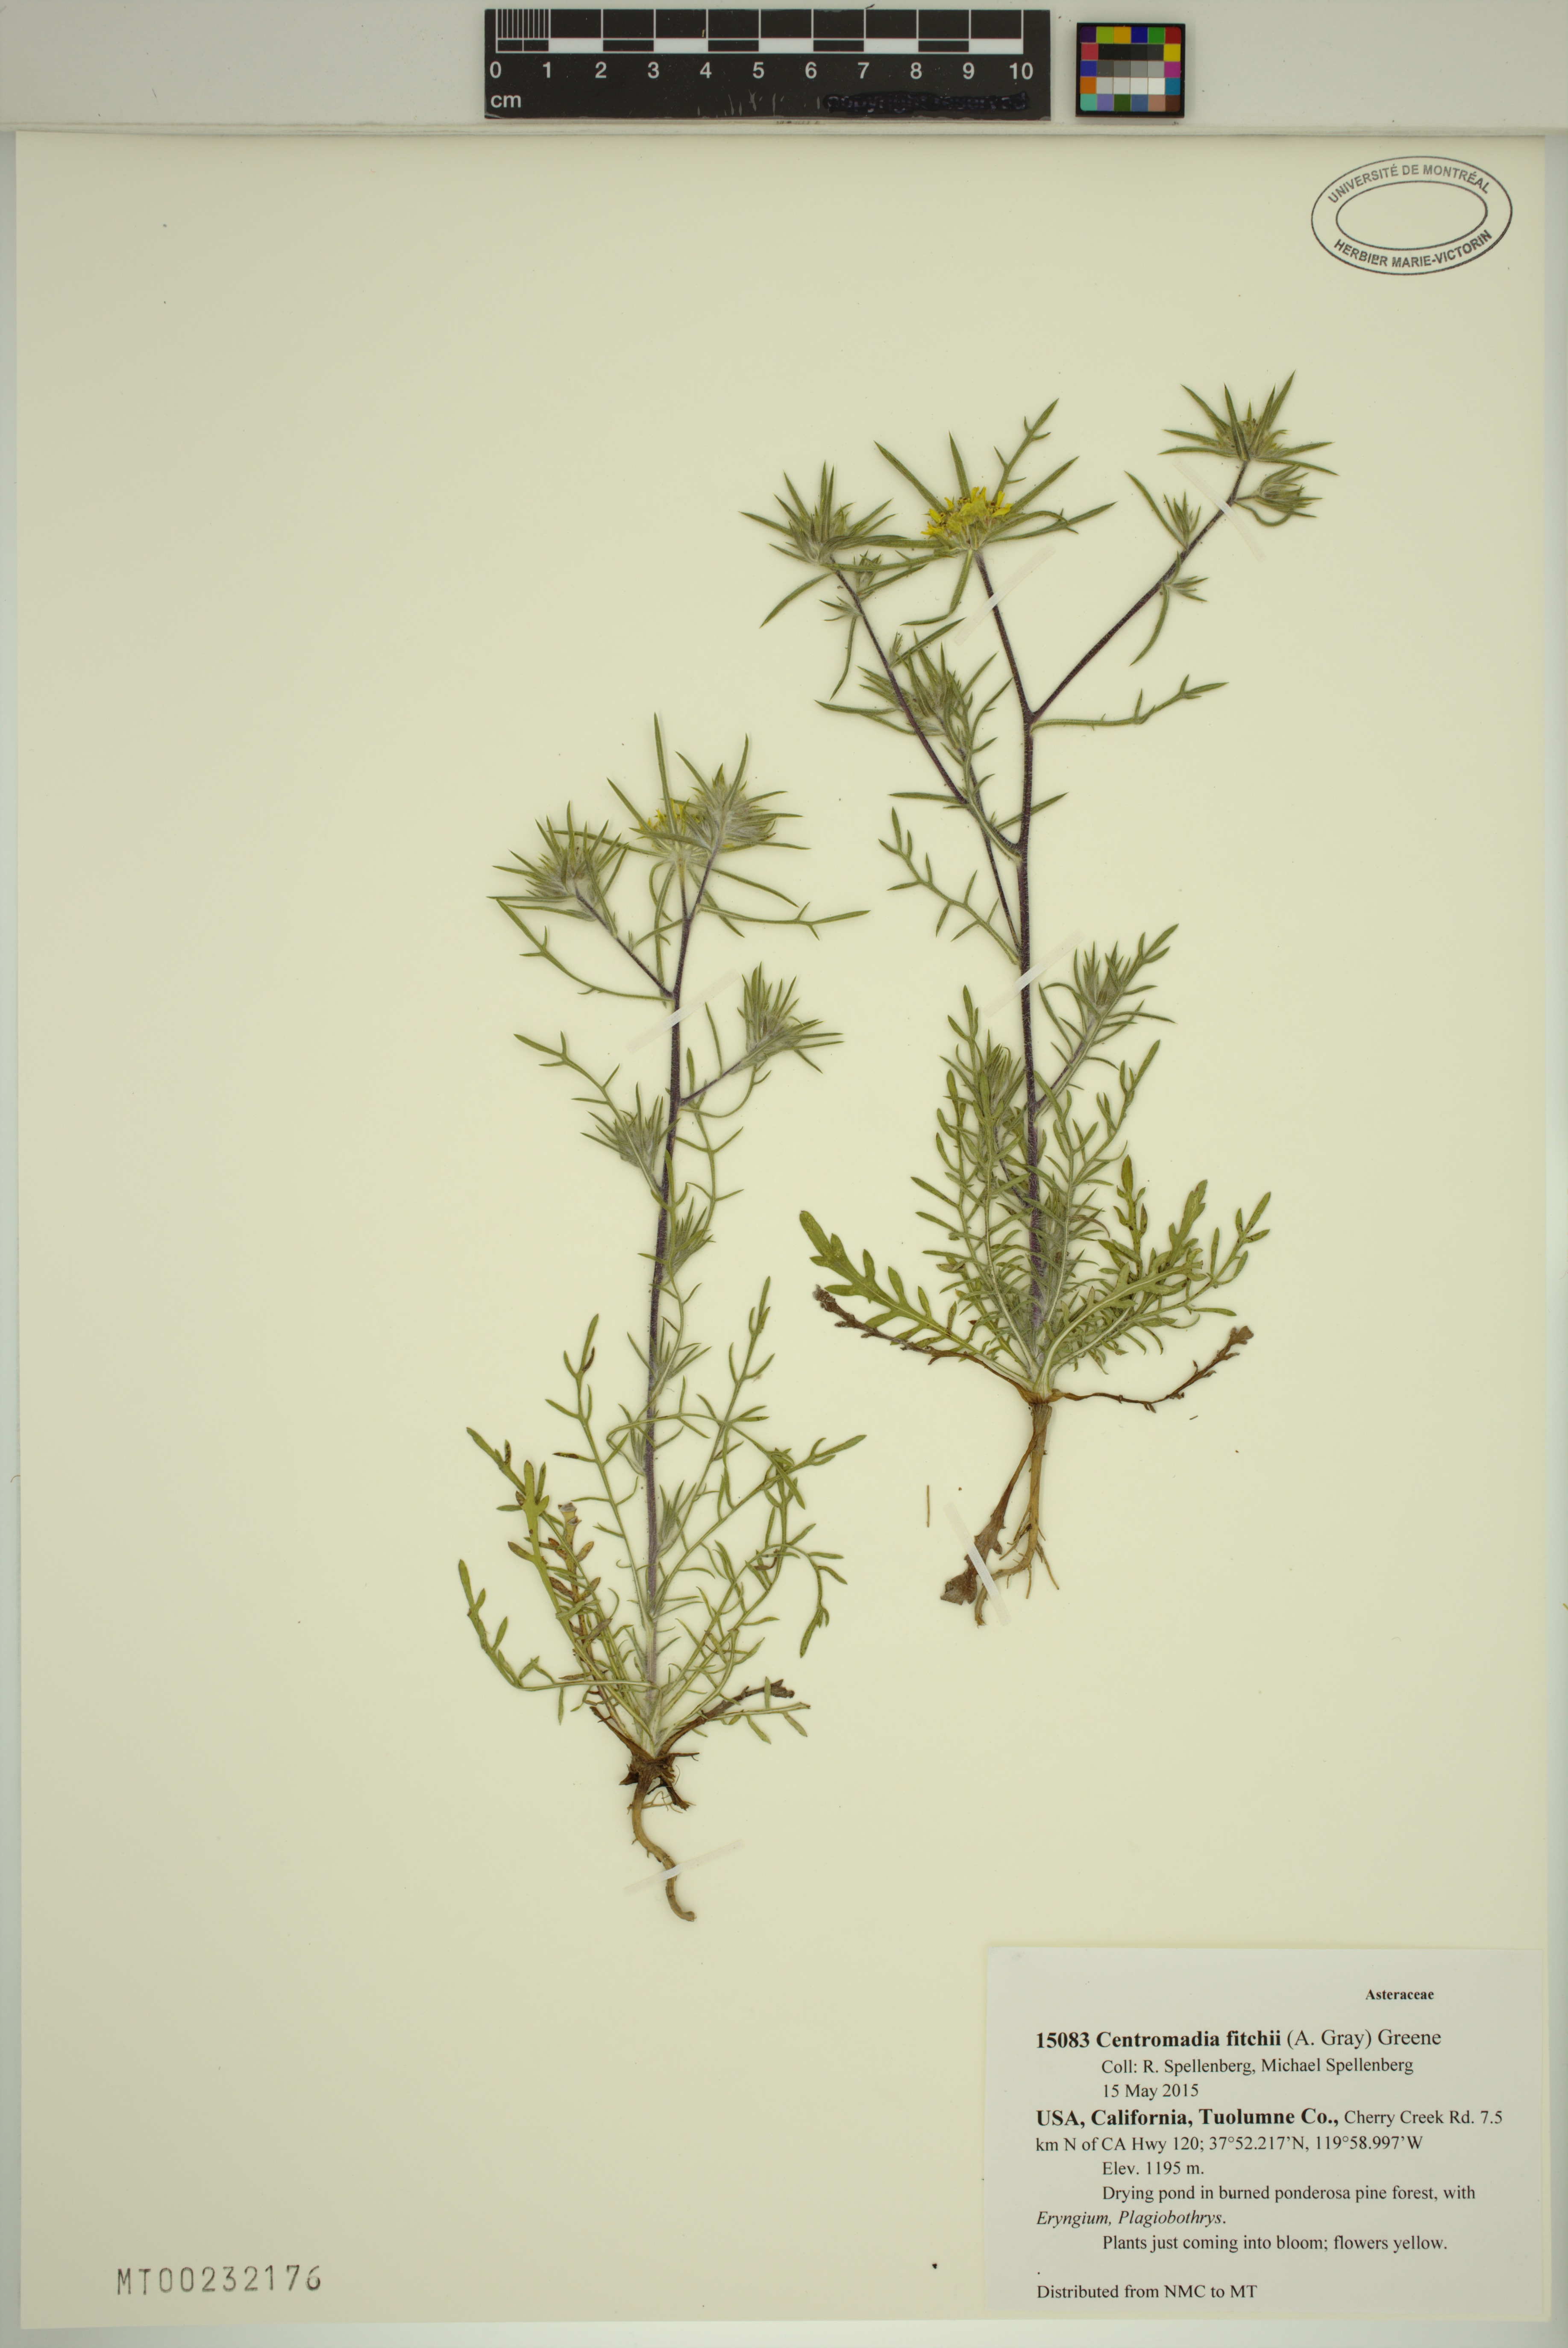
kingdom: Plantae
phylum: Tracheophyta
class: Magnoliopsida
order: Asterales
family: Asteraceae
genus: Centromadia
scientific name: Centromadia fitchii
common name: Fitch's spikeweed
